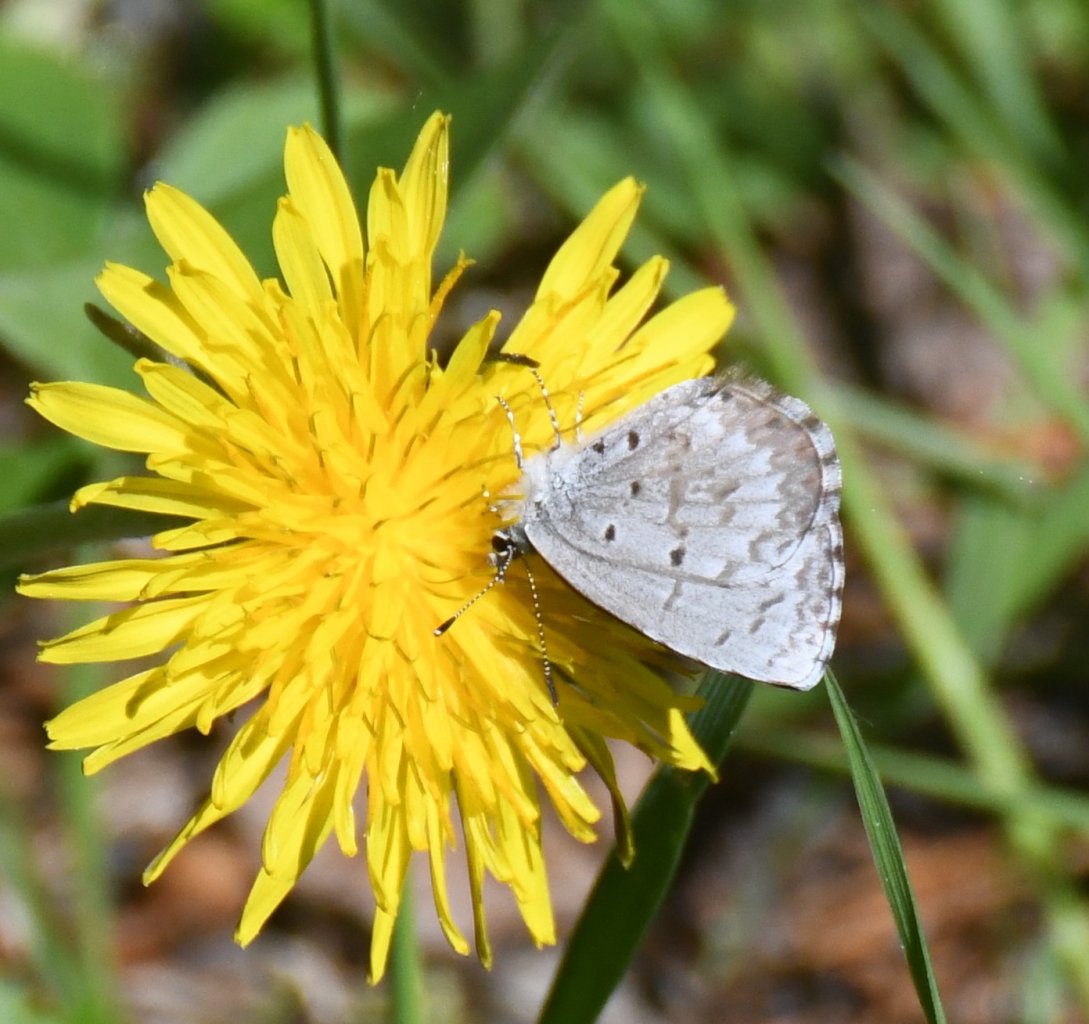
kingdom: Animalia
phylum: Arthropoda
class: Insecta
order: Lepidoptera
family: Lycaenidae
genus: Celastrina
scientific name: Celastrina lucia
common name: Northern Spring Azure
